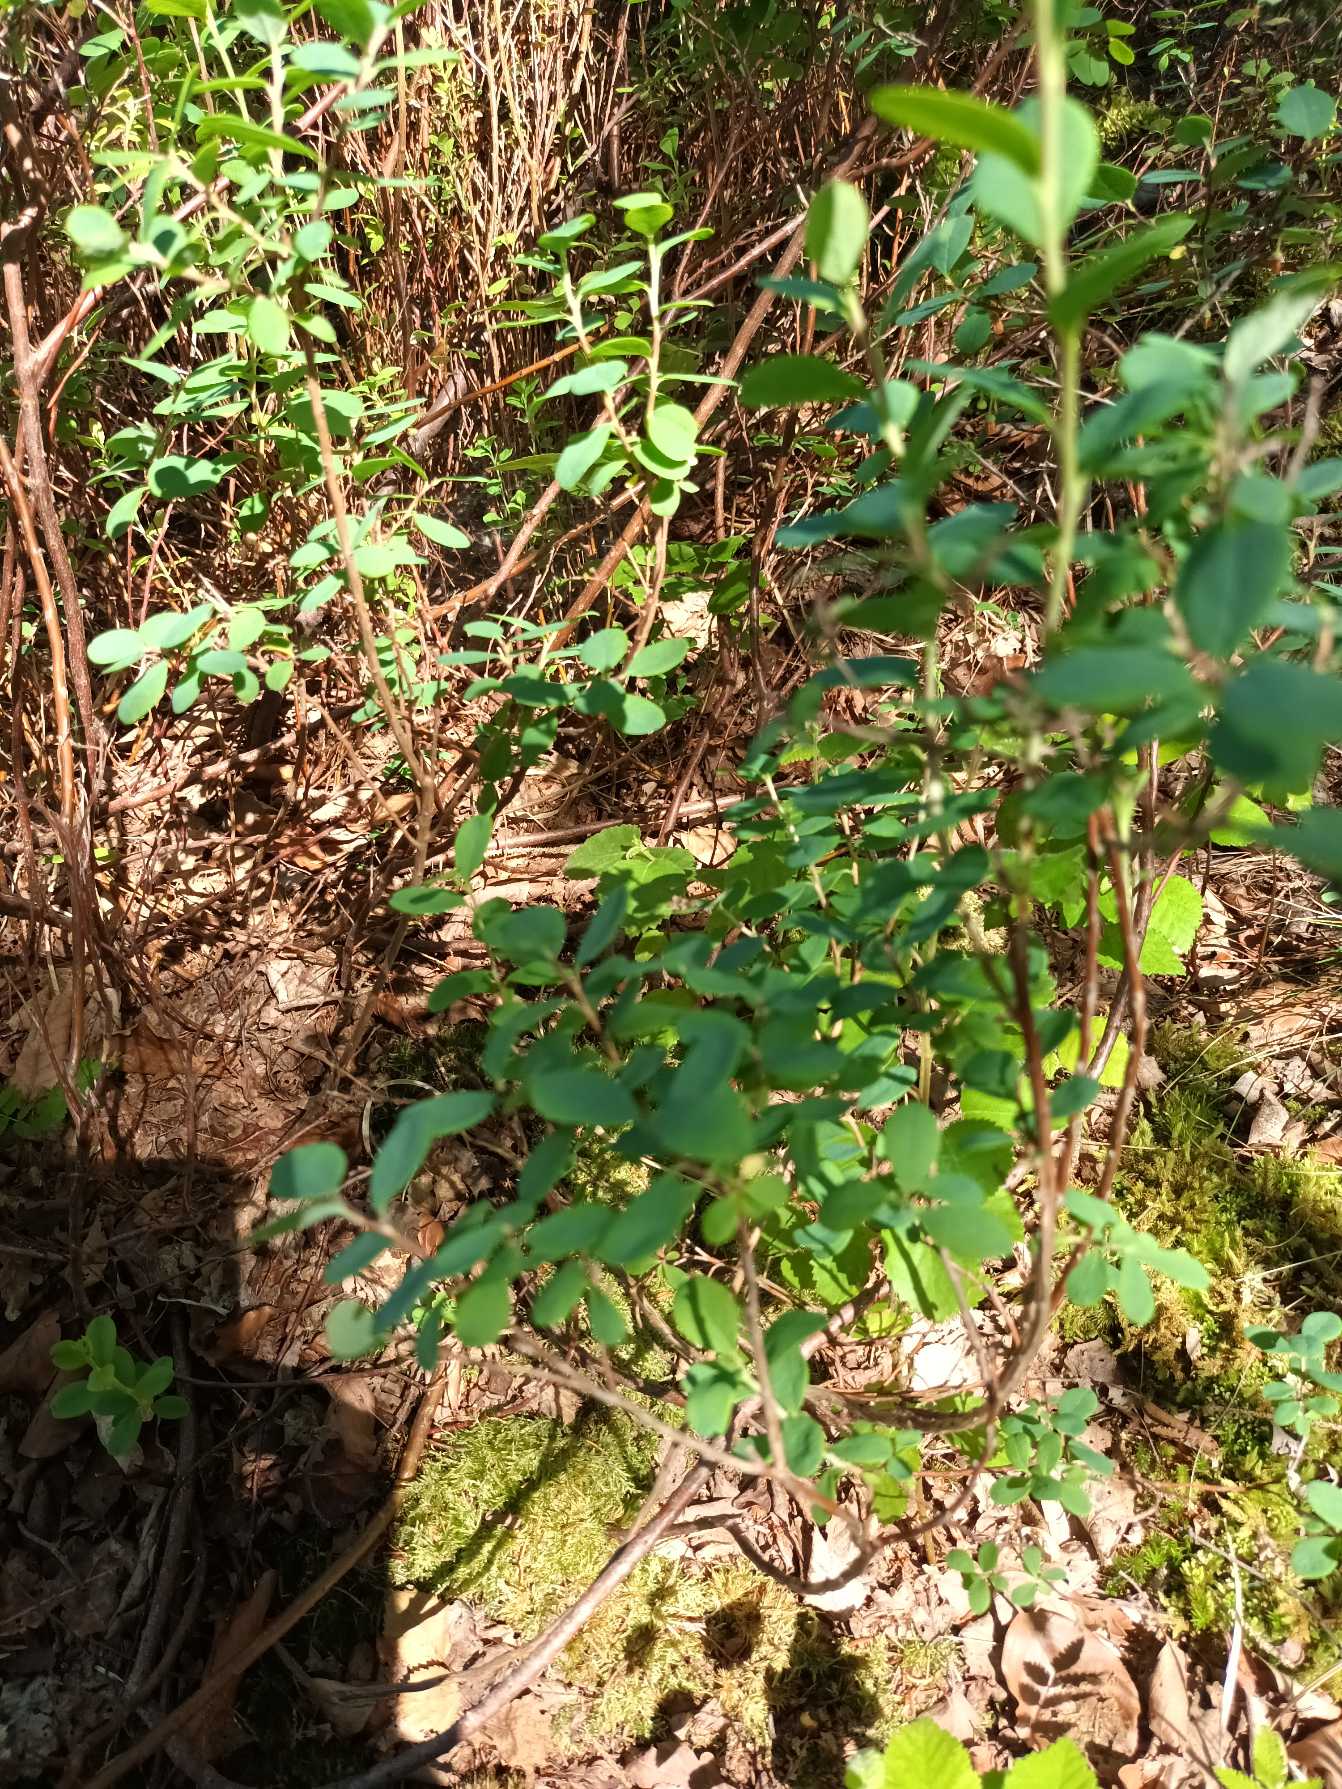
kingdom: Plantae
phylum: Tracheophyta
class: Magnoliopsida
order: Ericales
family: Ericaceae
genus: Vaccinium
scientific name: Vaccinium uliginosum
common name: Mose-bølle
